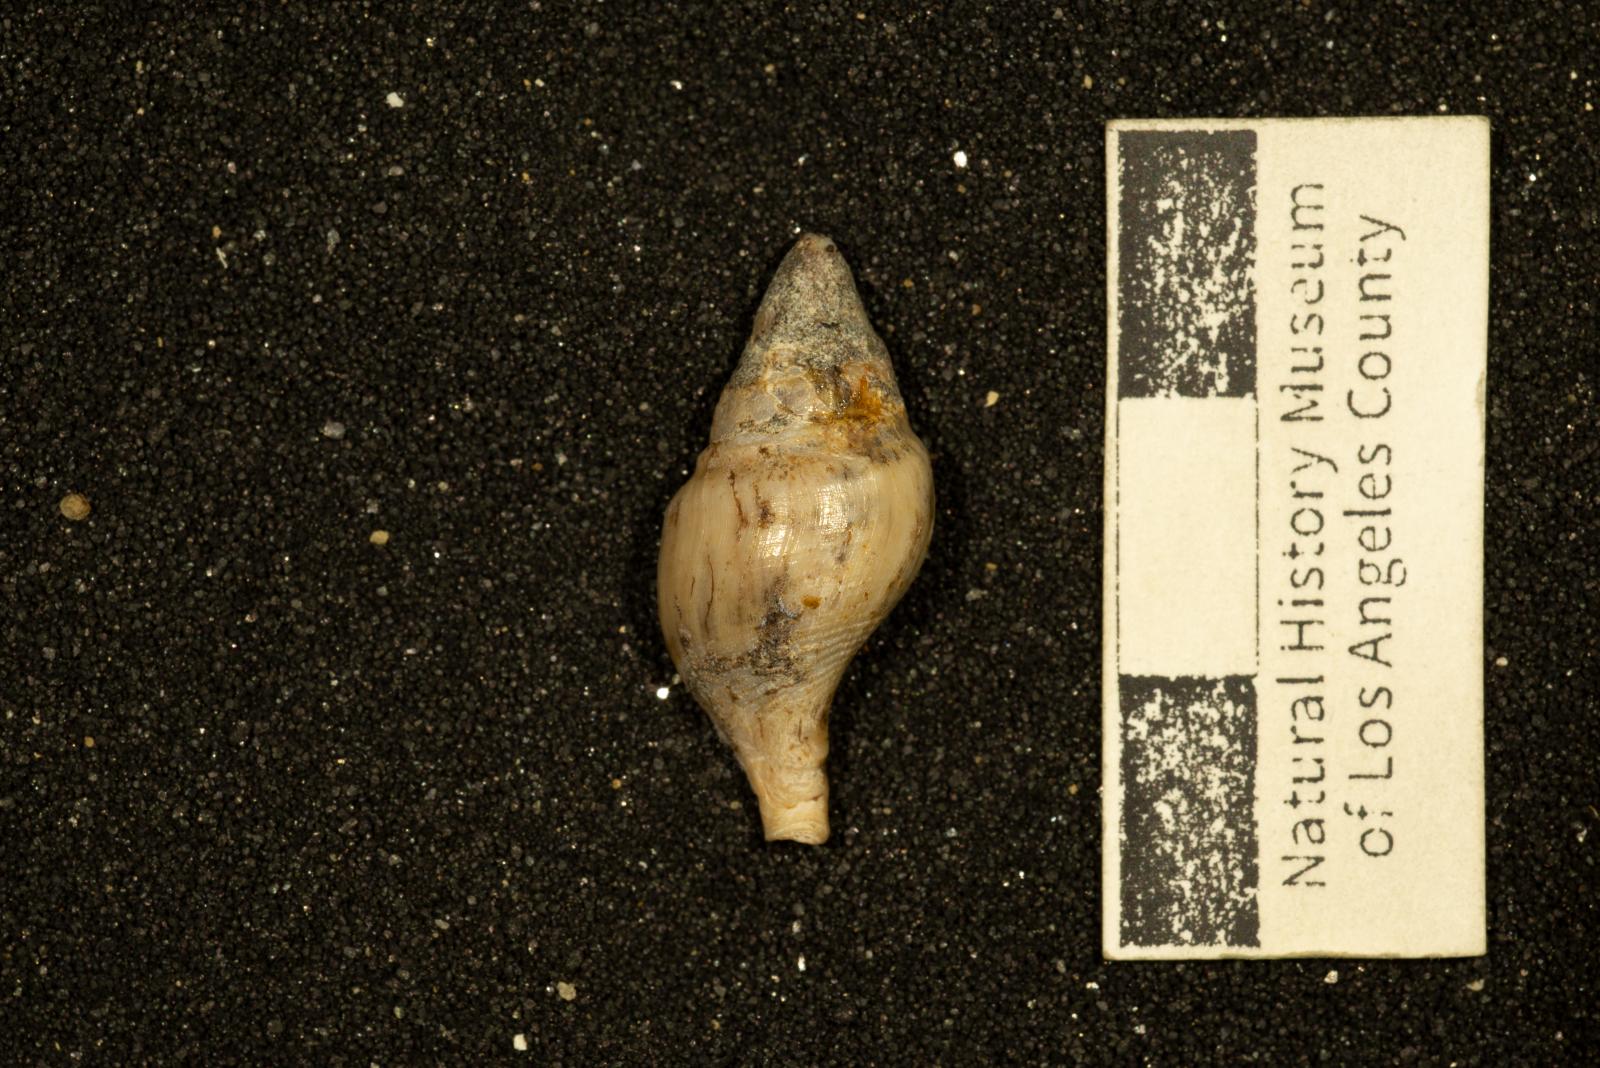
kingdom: Animalia
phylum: Mollusca
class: Gastropoda
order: Neogastropoda
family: Fasciolariidae
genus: Plectocion
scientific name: Plectocion montis
